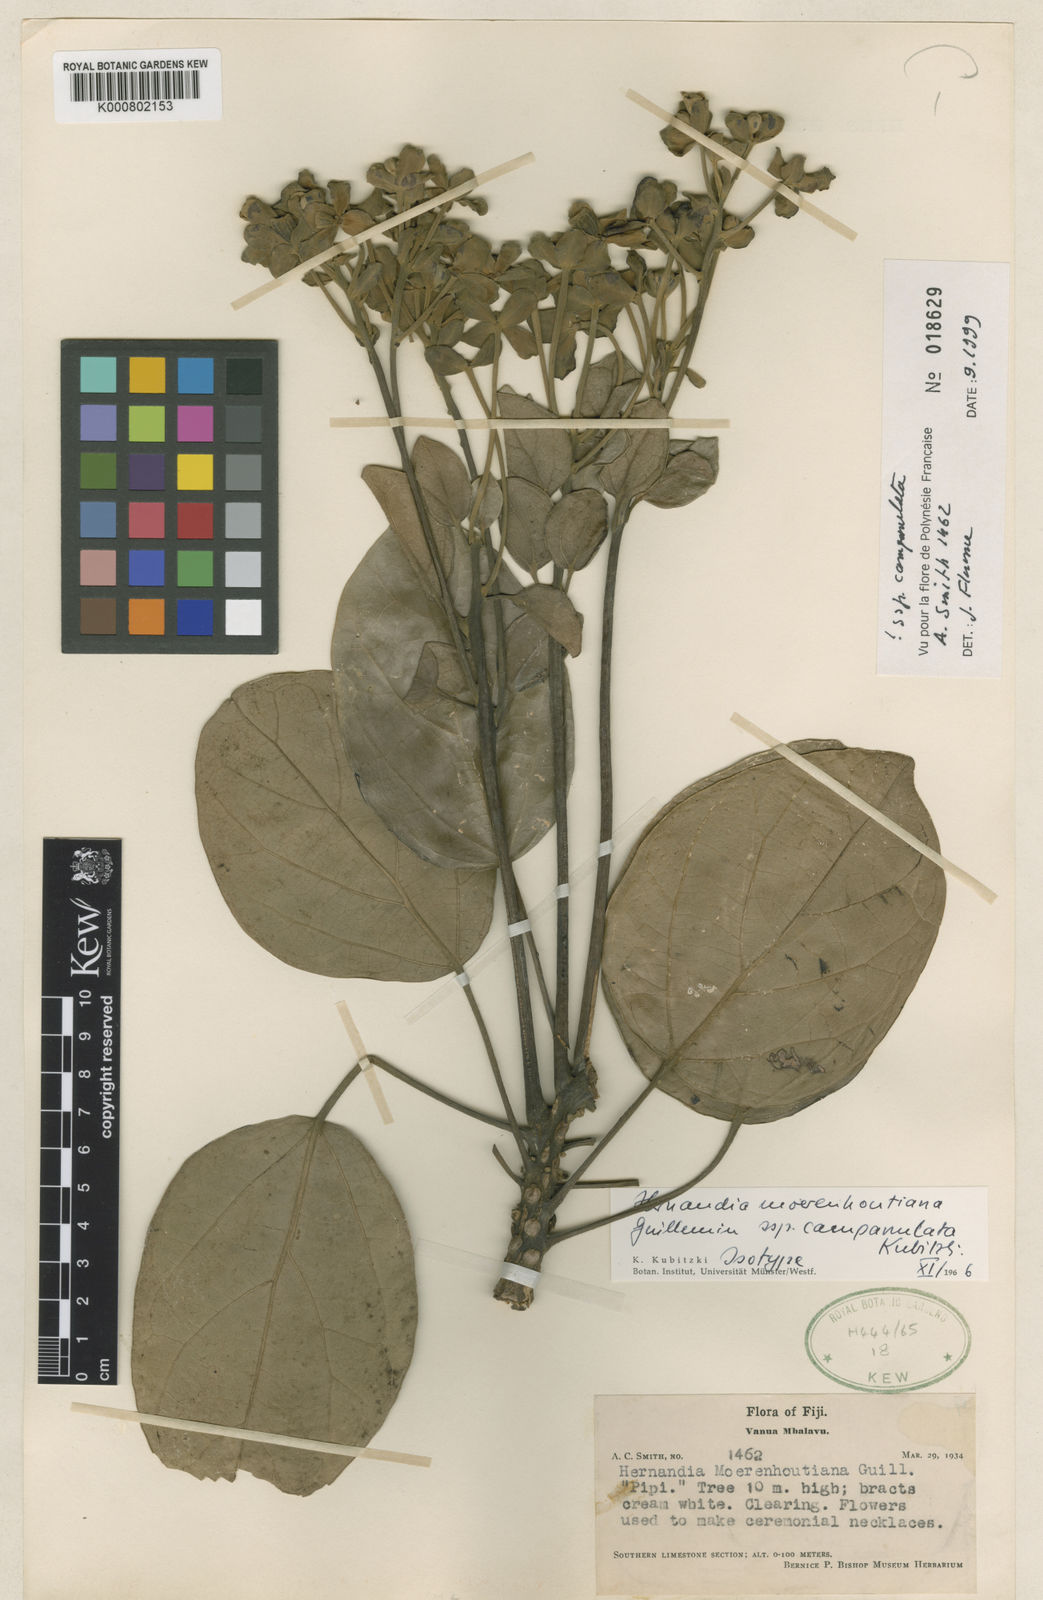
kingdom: Plantae
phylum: Tracheophyta
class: Magnoliopsida
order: Laurales
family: Hernandiaceae
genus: Hernandia
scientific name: Hernandia moerenhoutiana
